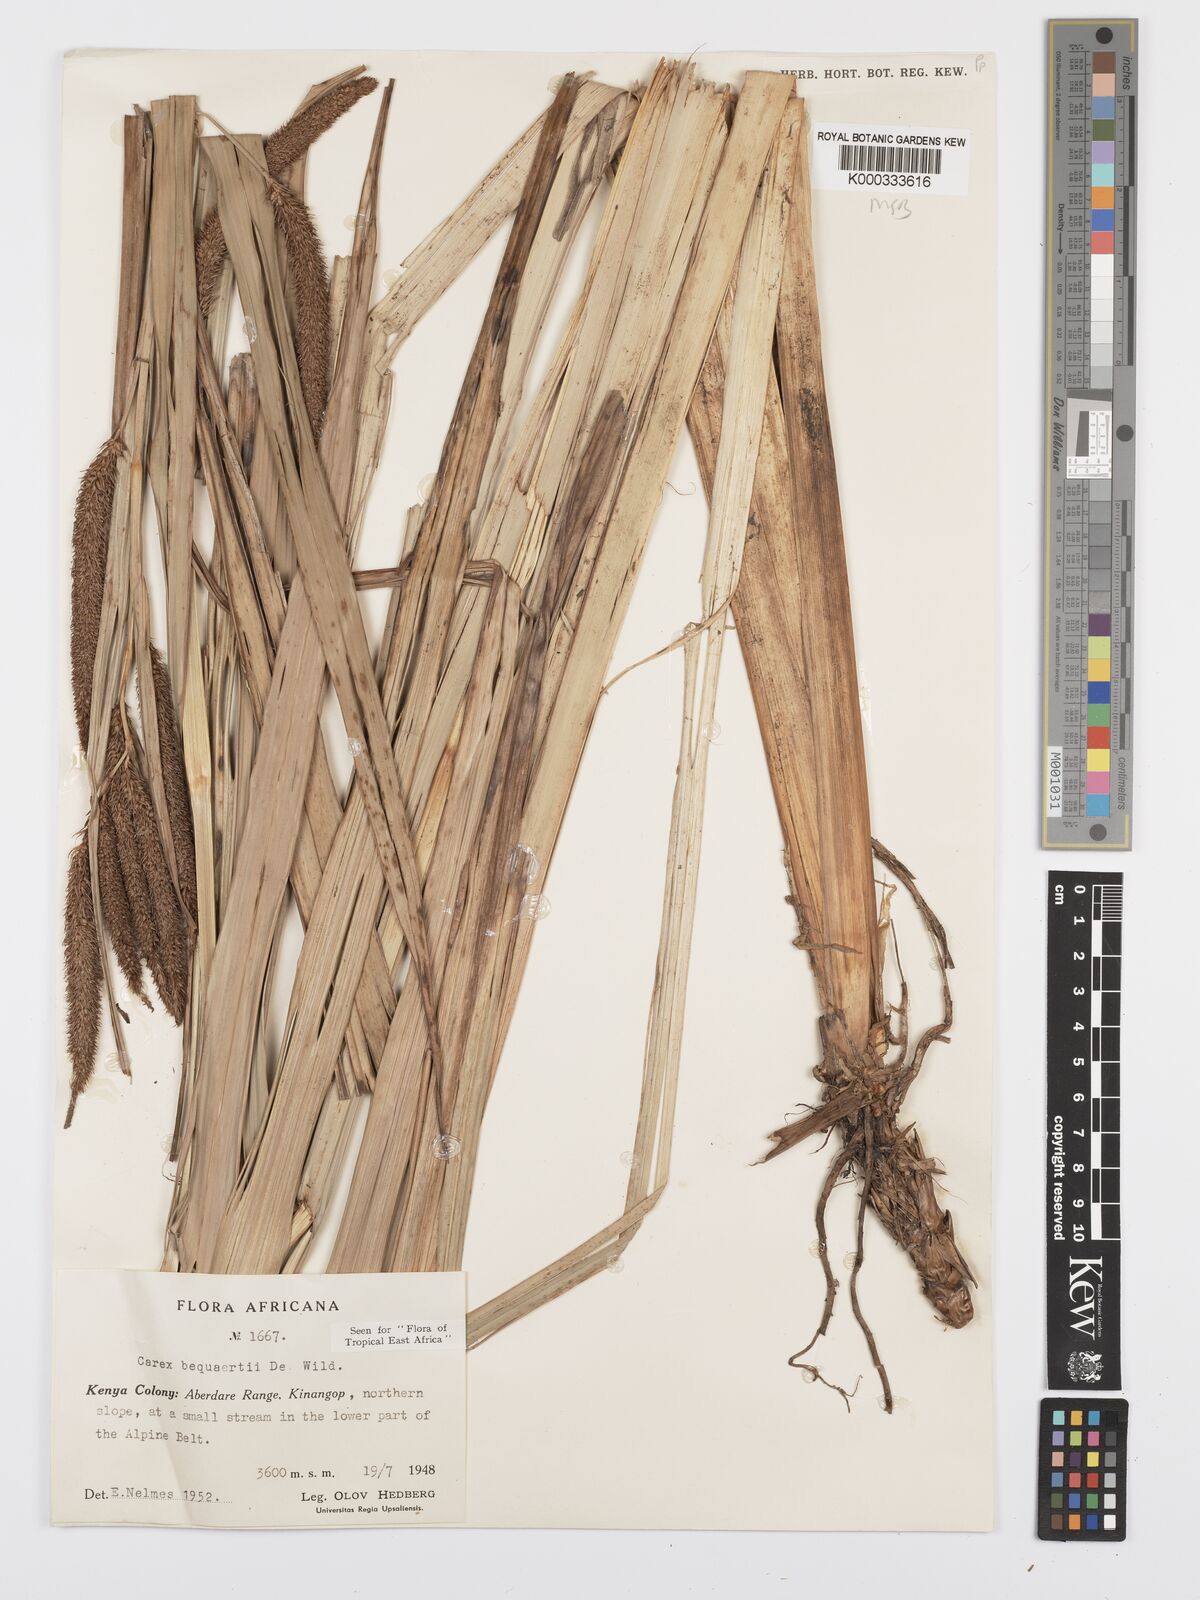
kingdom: Plantae
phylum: Tracheophyta
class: Liliopsida
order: Poales
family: Cyperaceae
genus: Carex
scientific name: Carex bequaertii
